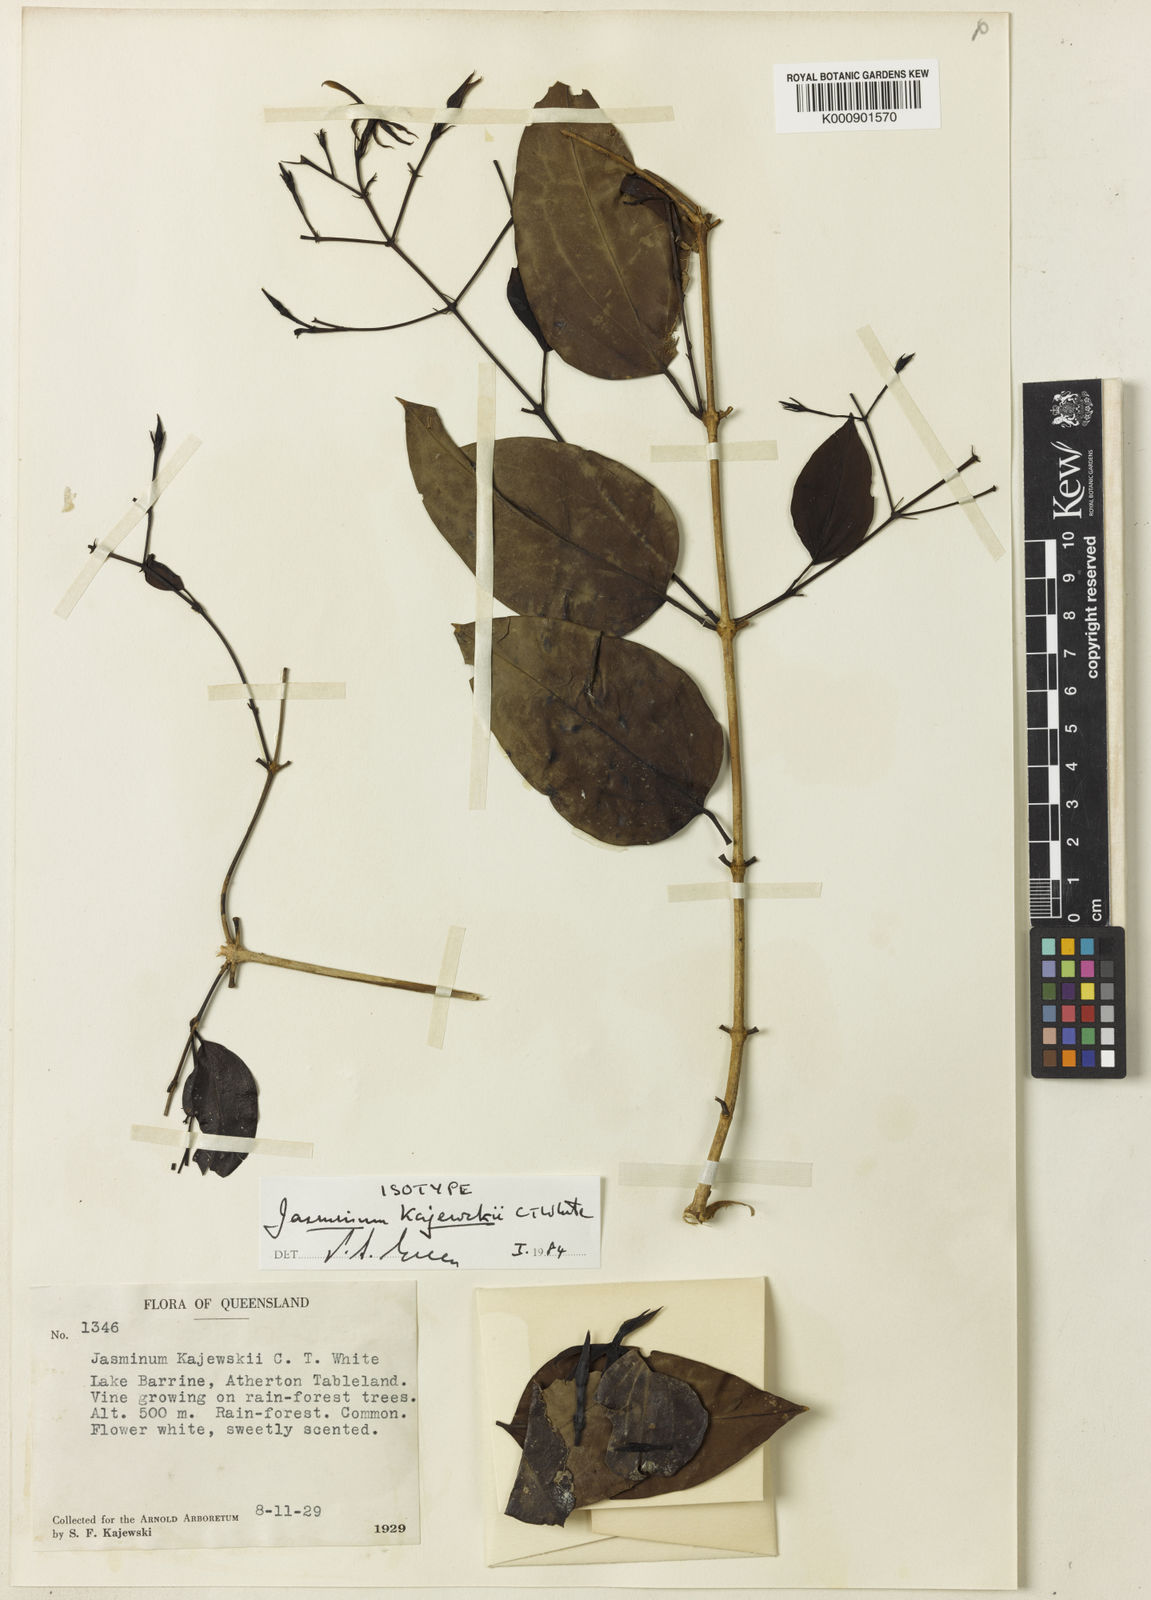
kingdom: Plantae
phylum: Tracheophyta
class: Magnoliopsida
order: Lamiales
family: Oleaceae
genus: Jasminum
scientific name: Jasminum kajewskii
